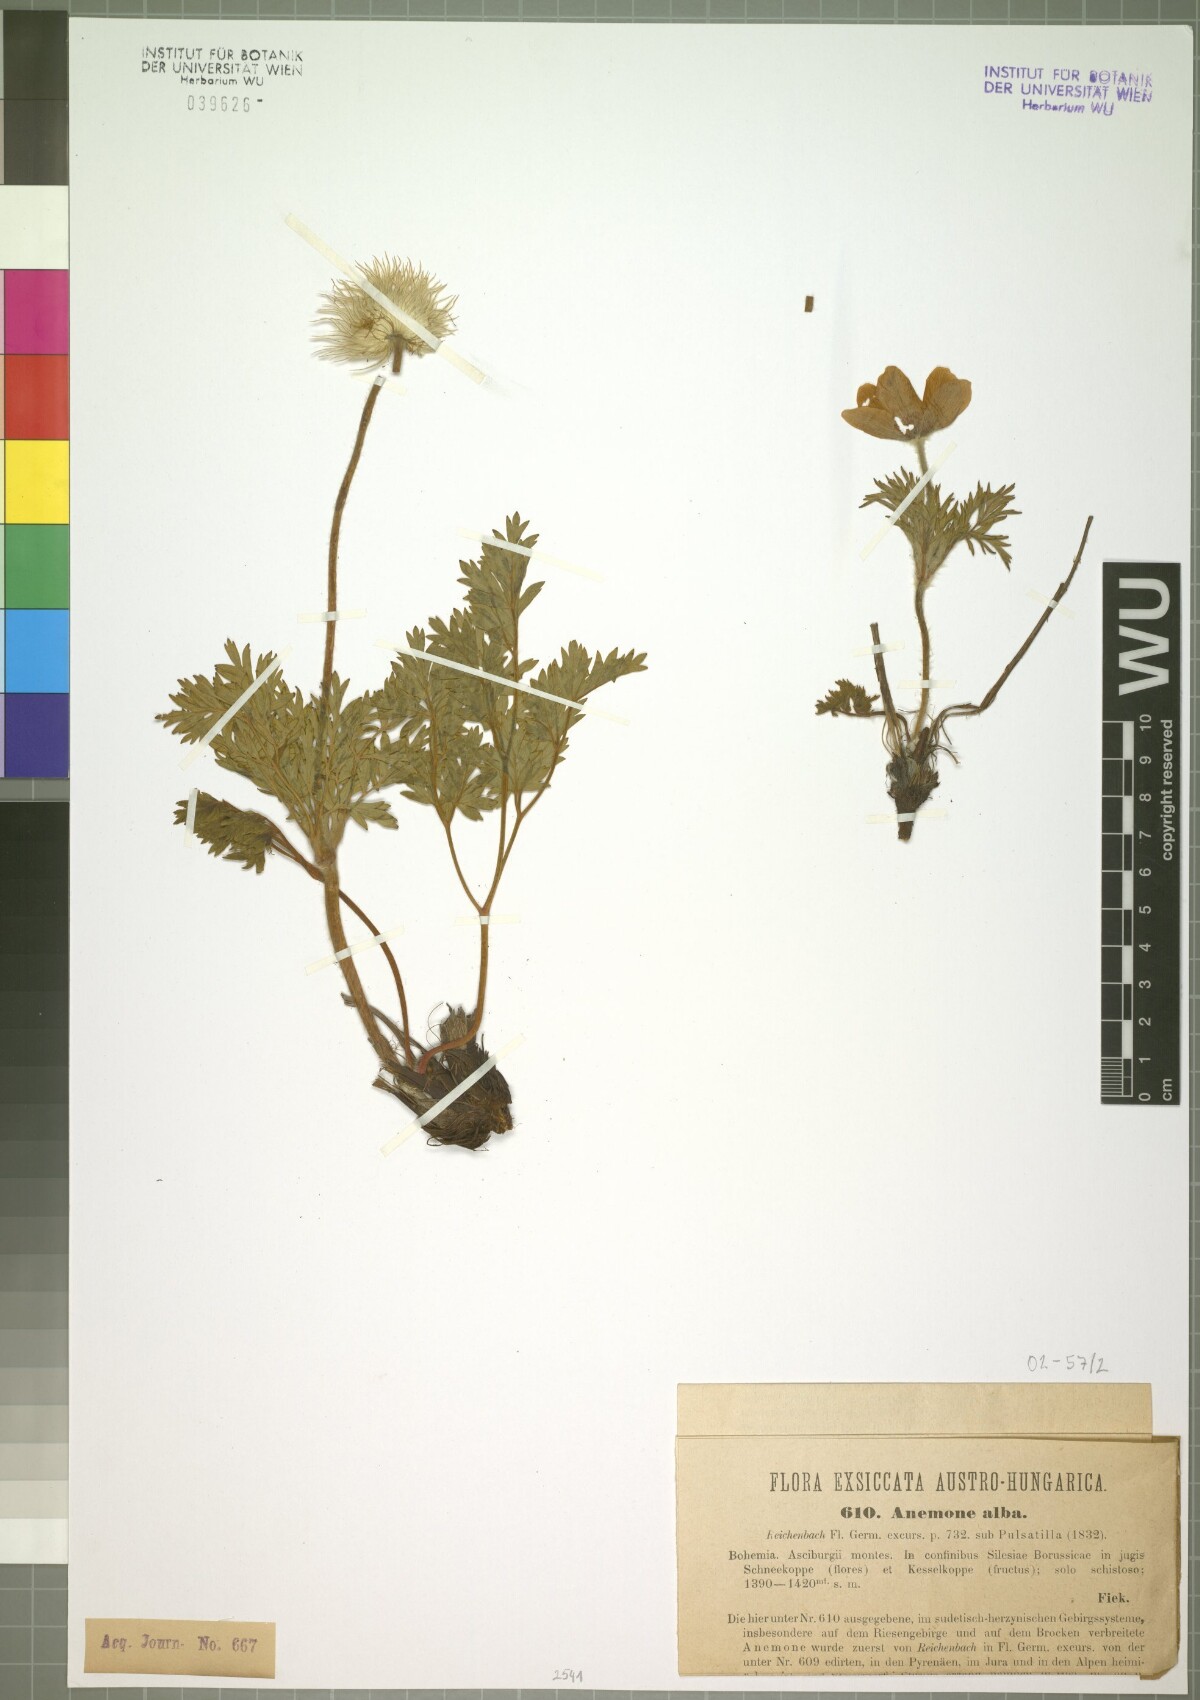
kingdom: Plantae
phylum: Tracheophyta
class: Magnoliopsida
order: Ranunculales
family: Ranunculaceae
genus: Pulsatilla
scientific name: Pulsatilla alpina
